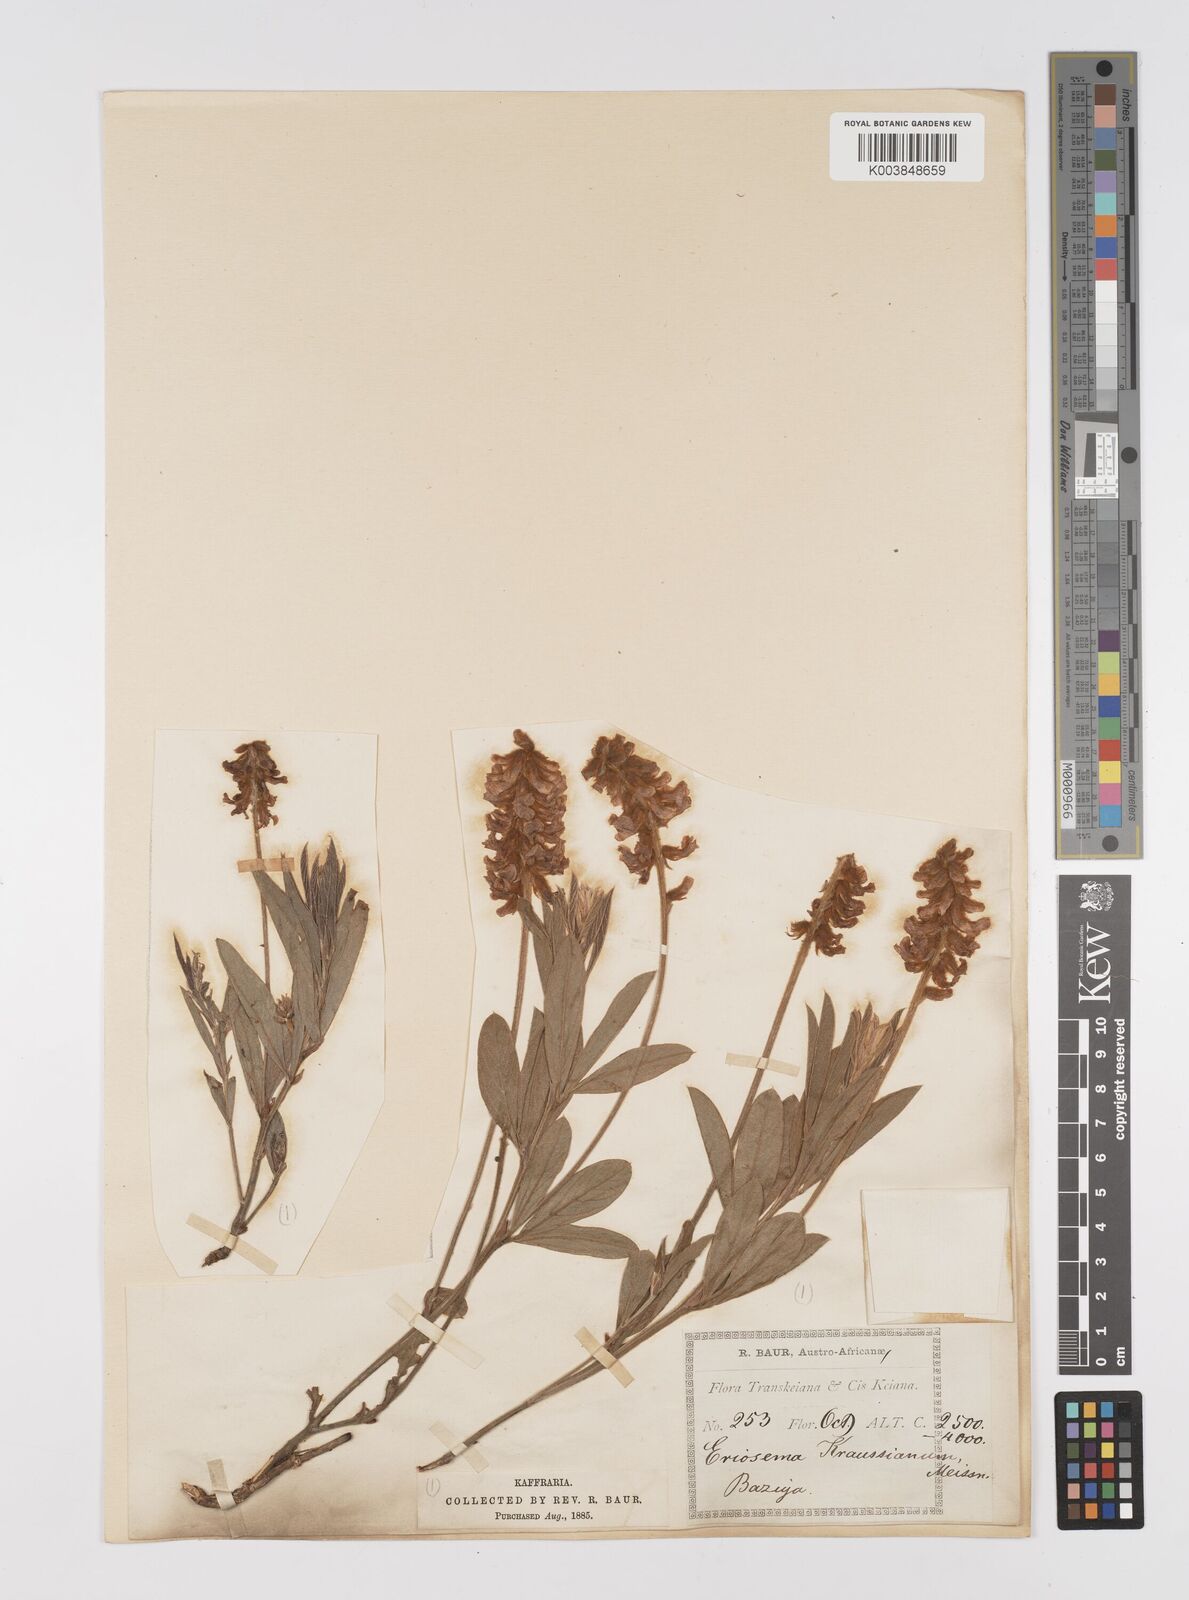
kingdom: Plantae
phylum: Tracheophyta
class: Magnoliopsida
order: Fabales
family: Fabaceae
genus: Eriosema
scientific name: Eriosema kraussianum
